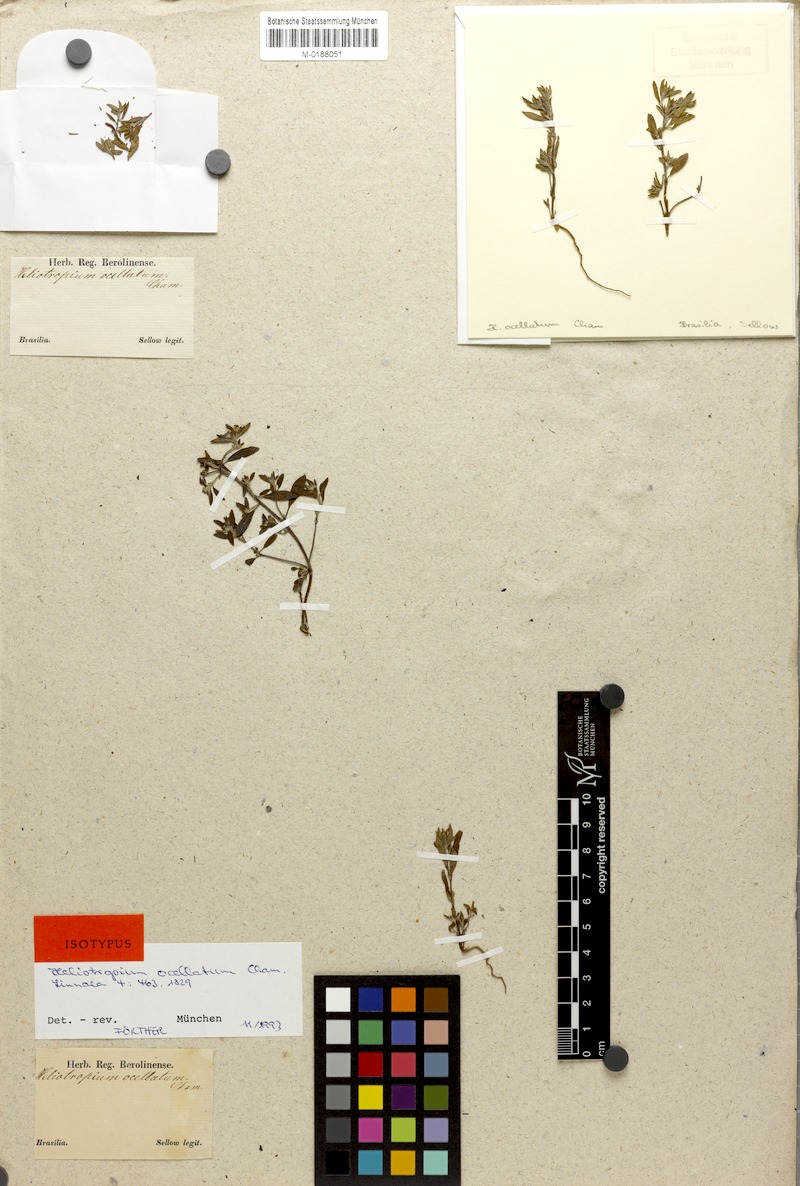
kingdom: Plantae
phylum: Tracheophyta
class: Magnoliopsida
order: Boraginales
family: Heliotropiaceae
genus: Euploca
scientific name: Euploca ocellata
